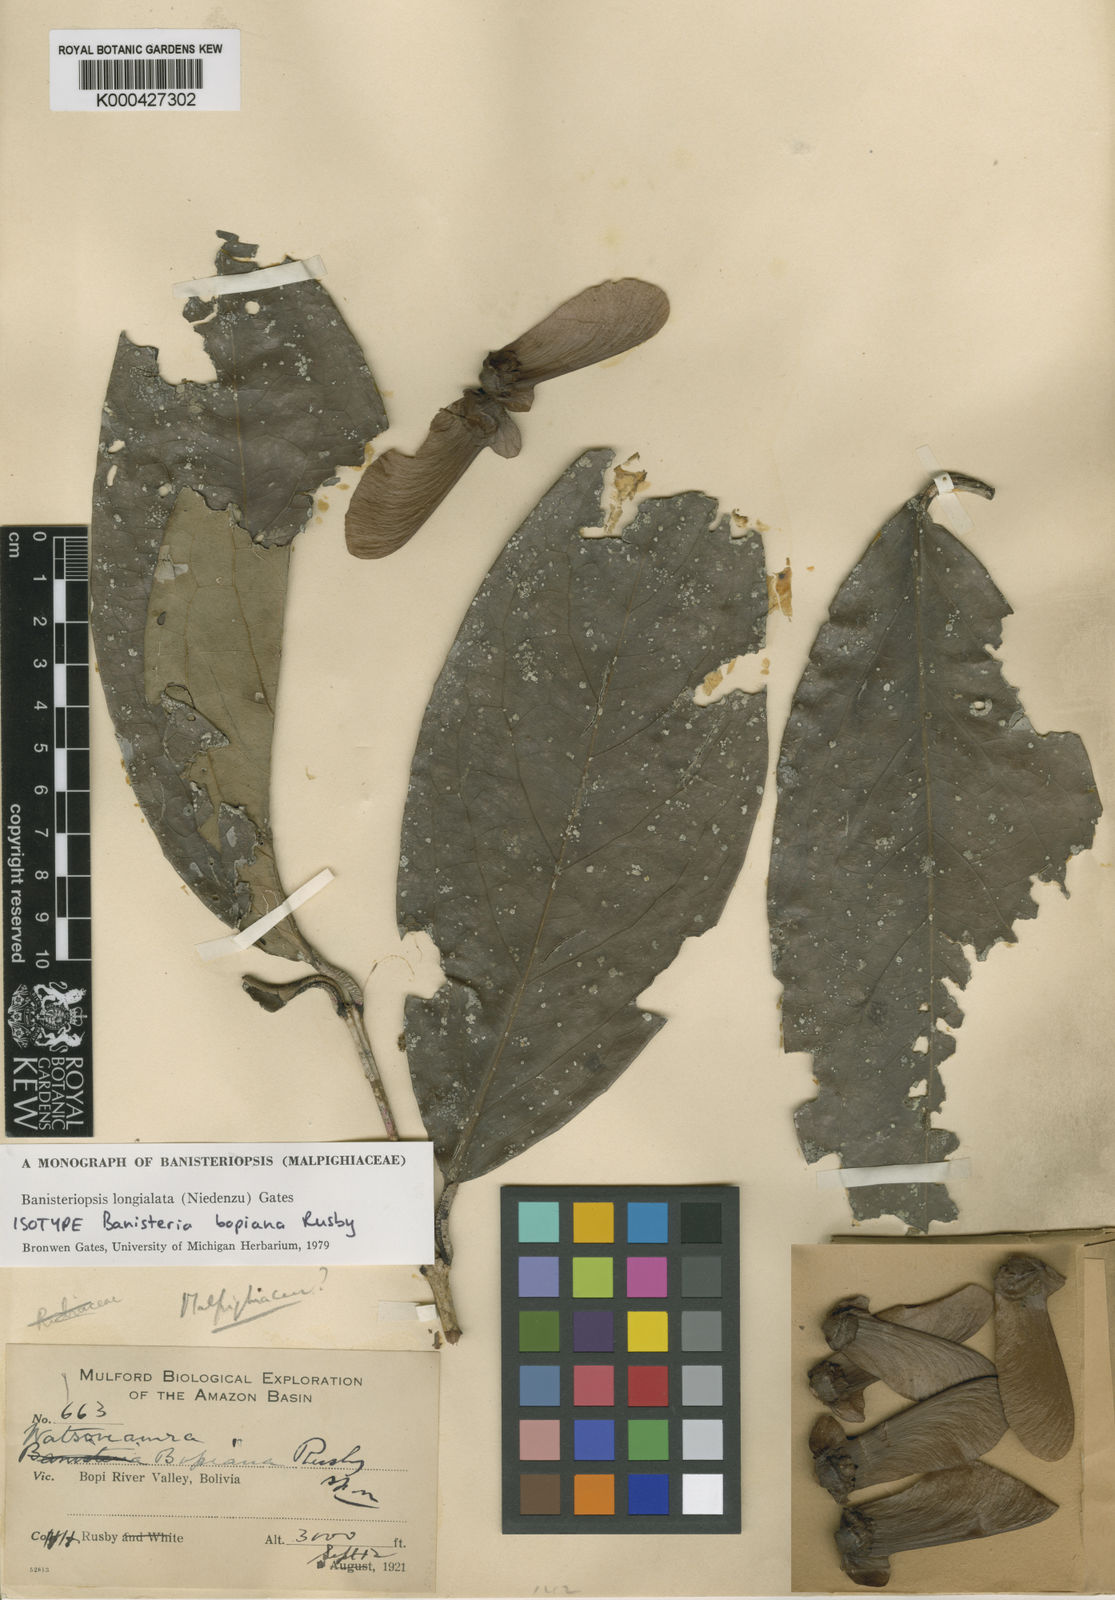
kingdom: Plantae
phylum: Tracheophyta
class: Magnoliopsida
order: Malpighiales
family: Malpighiaceae
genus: Diplopterys
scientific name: Diplopterys longialata
